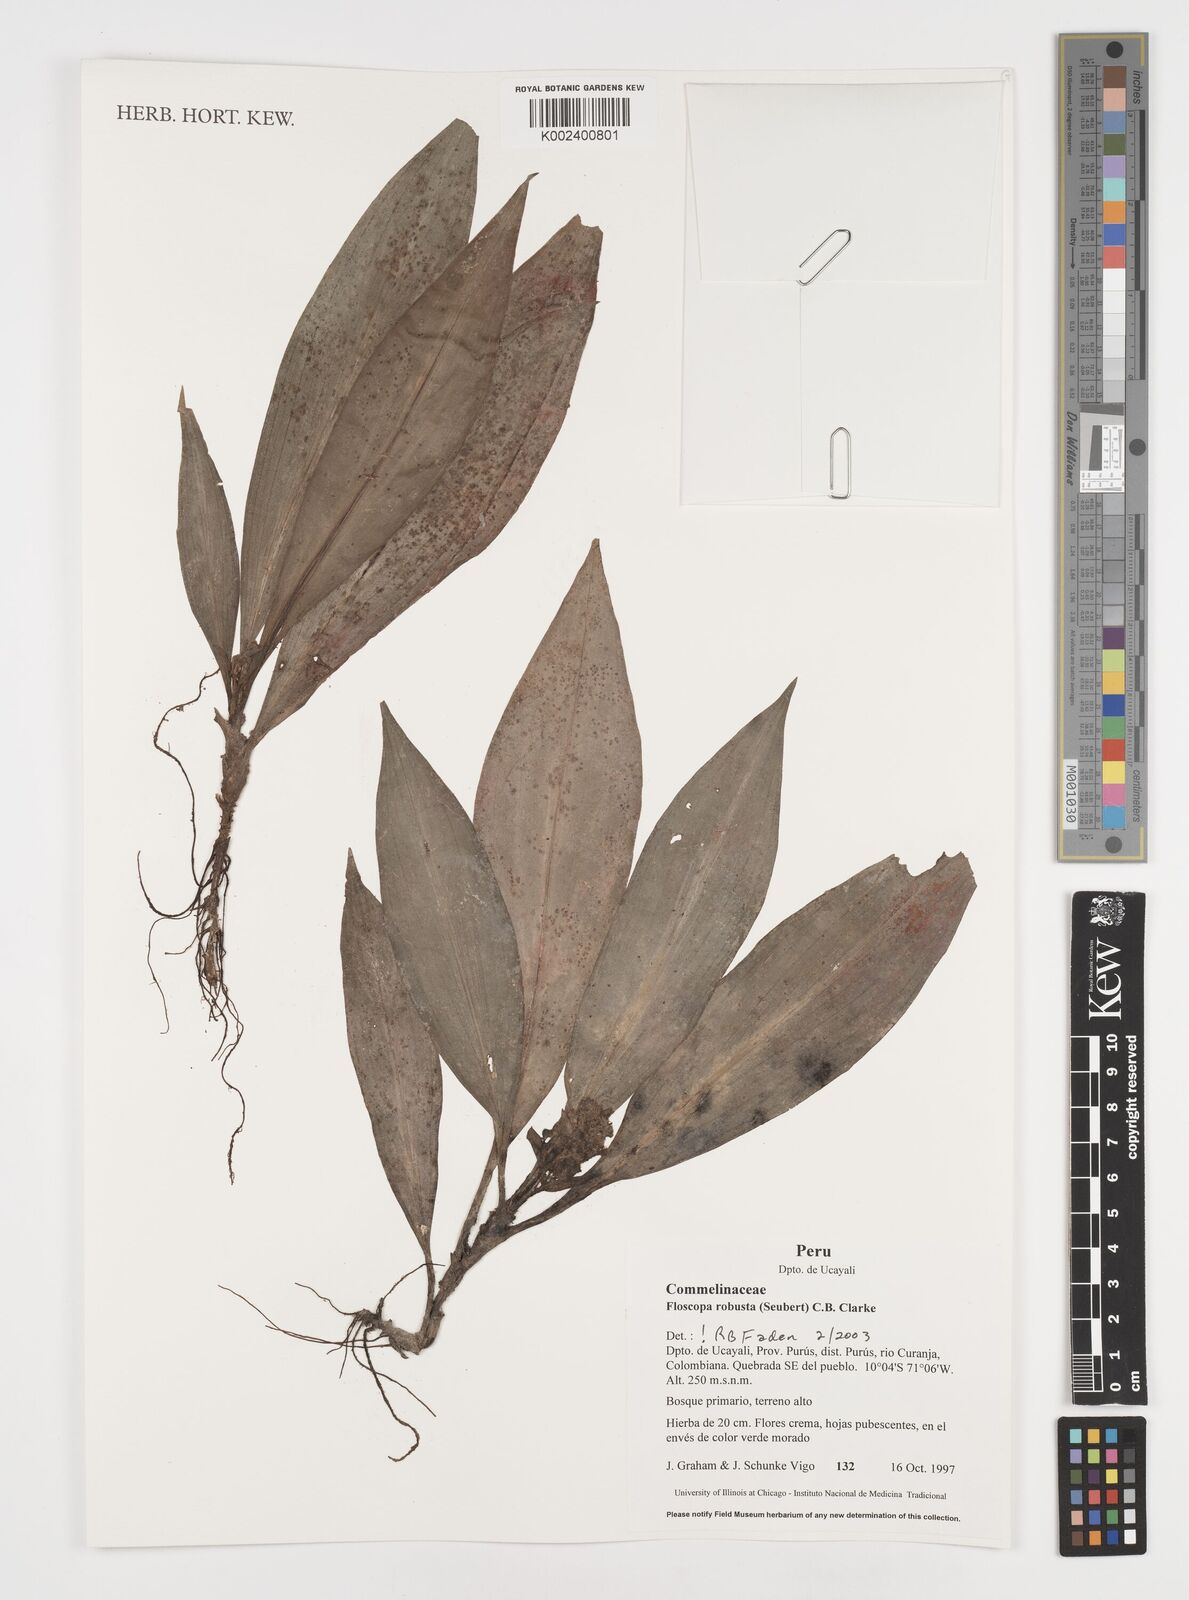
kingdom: Plantae
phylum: Tracheophyta
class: Liliopsida
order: Commelinales
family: Commelinaceae
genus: Floscopa
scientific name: Floscopa robusta
